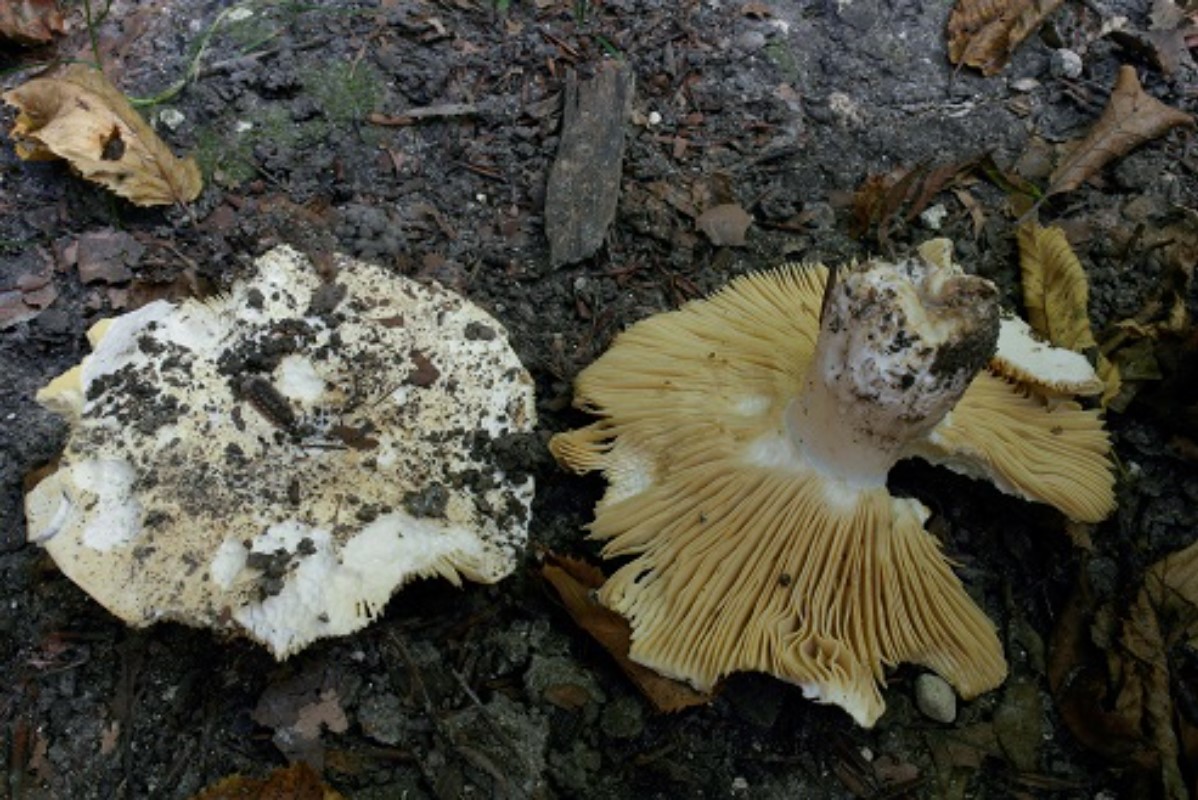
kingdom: Fungi
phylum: Basidiomycota
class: Agaricomycetes
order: Russulales
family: Russulaceae
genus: Russula
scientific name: Russula flavispora
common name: gulsporet tragt-skørhat
